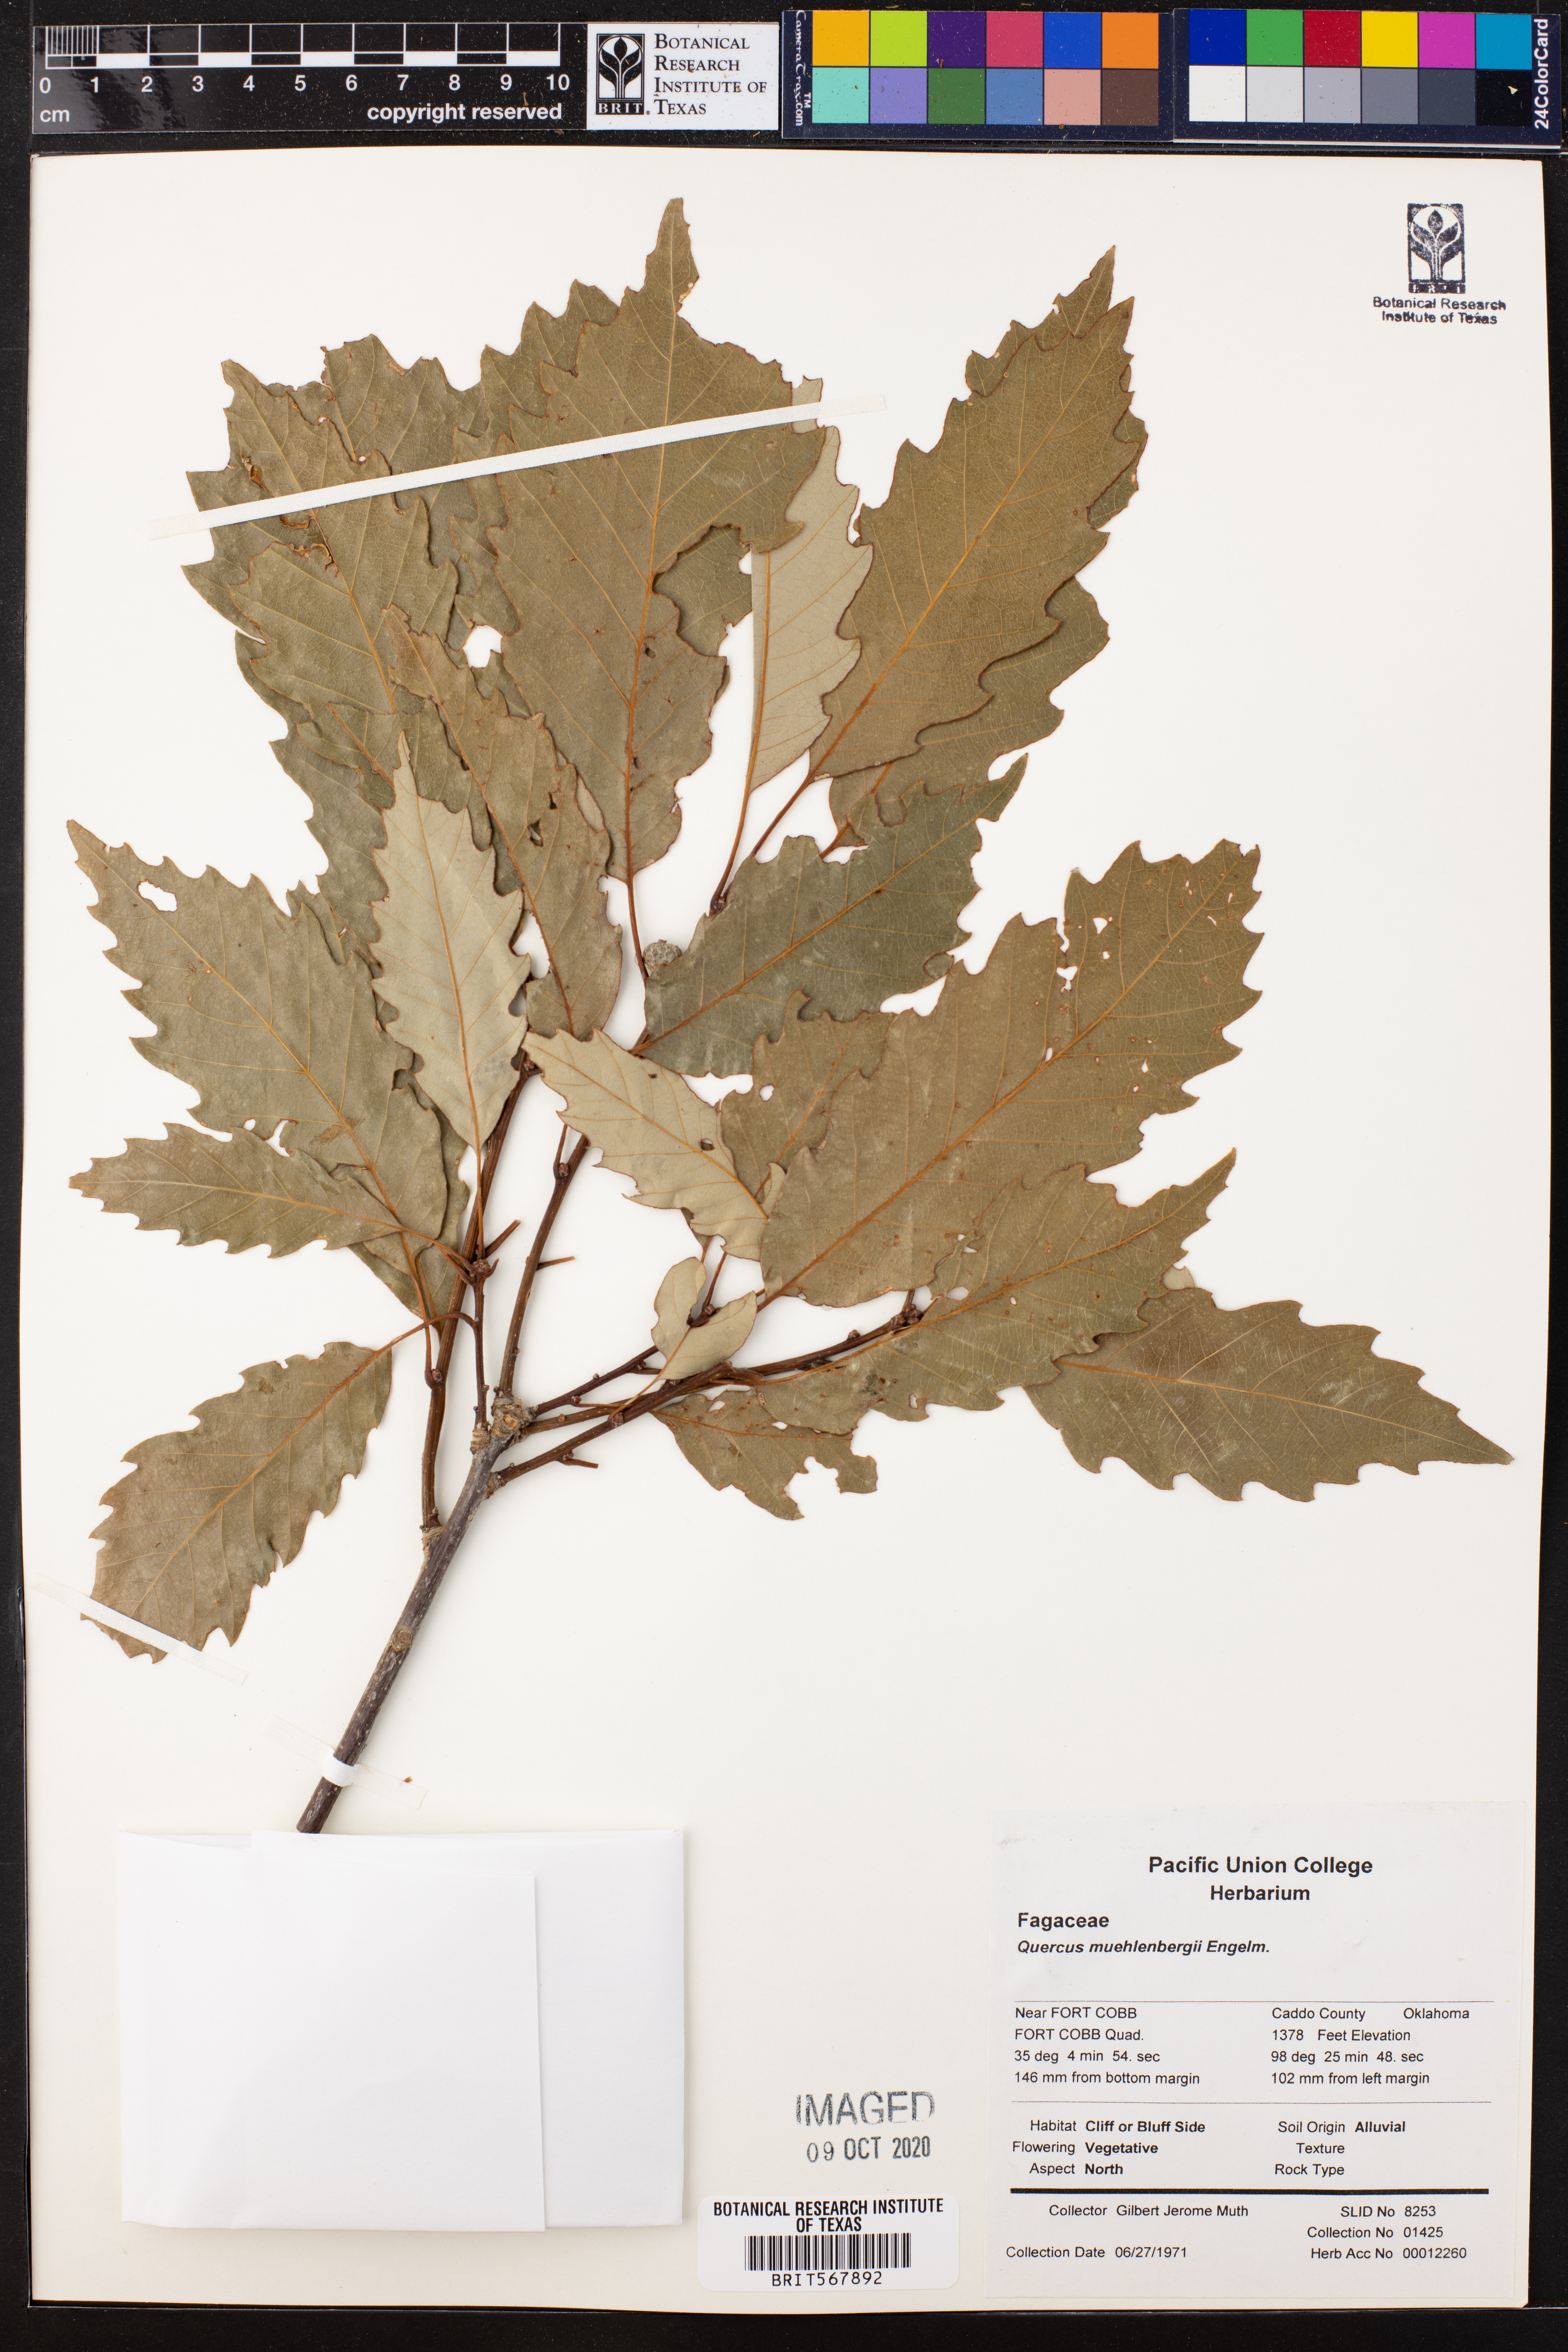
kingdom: Plantae
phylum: Tracheophyta
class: Magnoliopsida
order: Fagales
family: Fagaceae
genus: Quercus
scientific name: Quercus muehlenbergii
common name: Chinkapin oak
